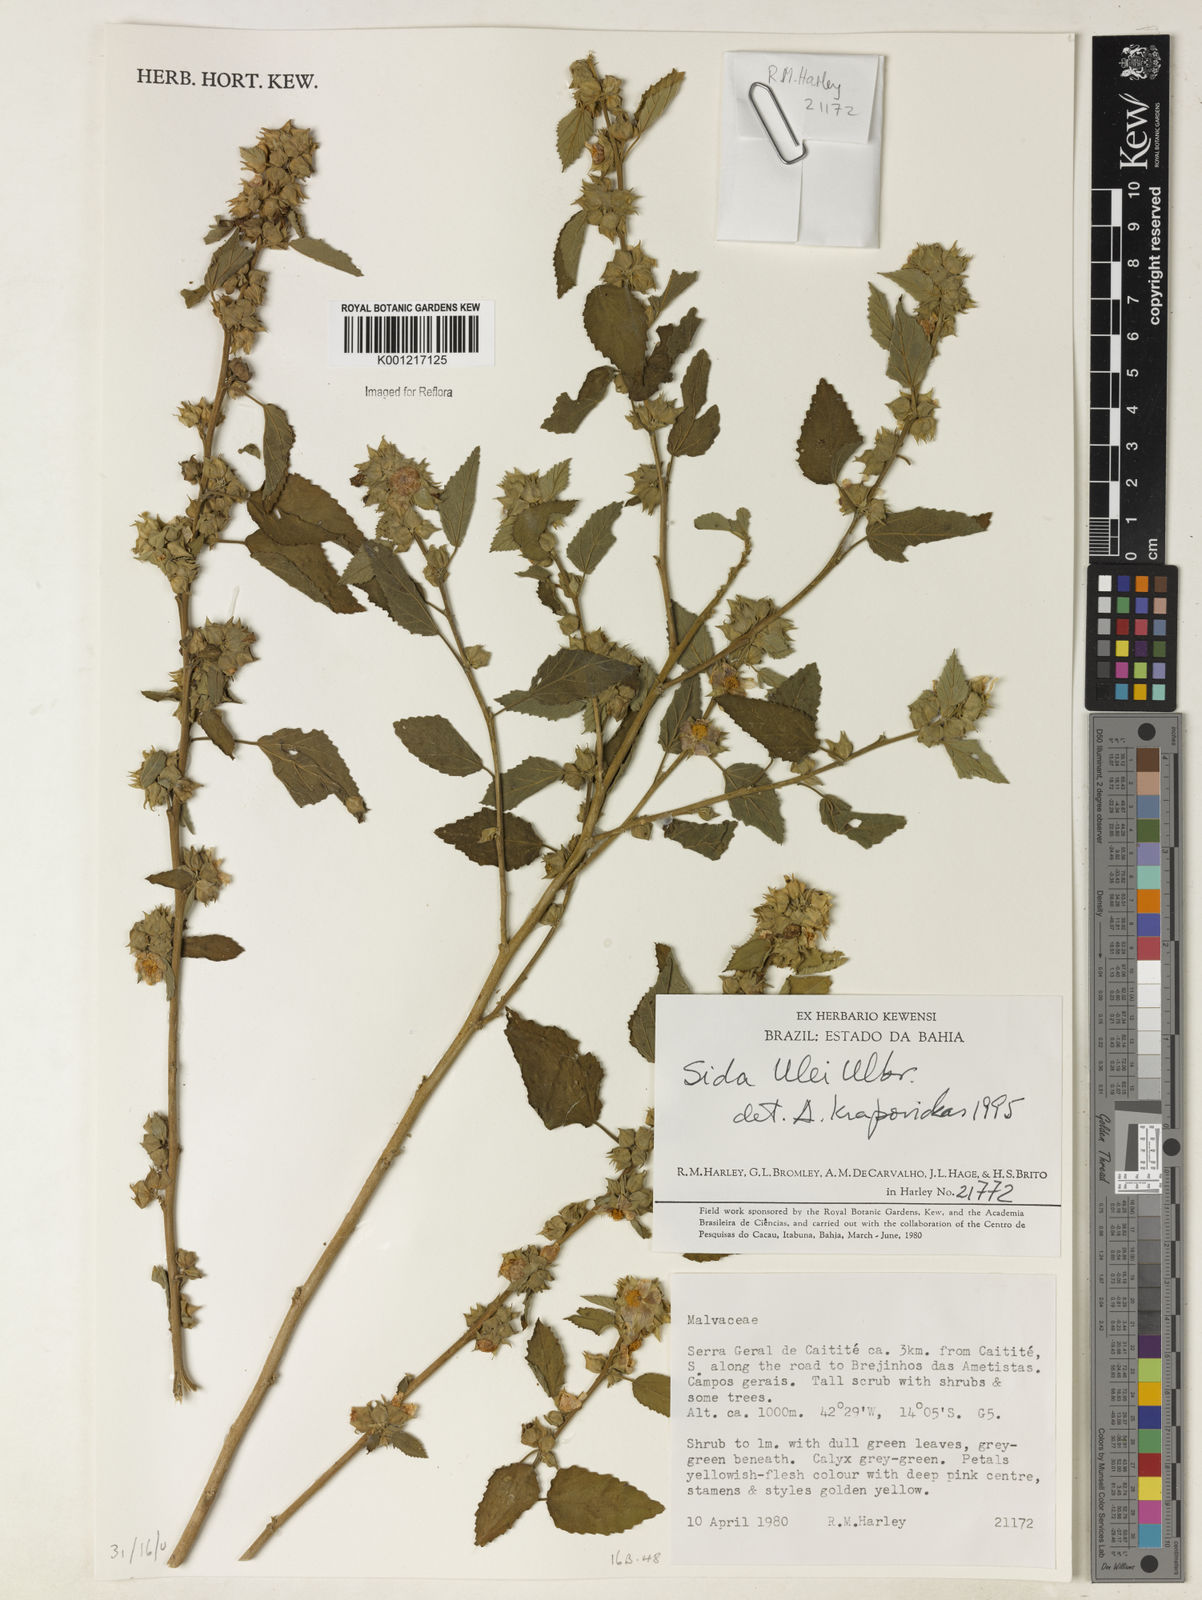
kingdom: Plantae
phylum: Tracheophyta
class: Magnoliopsida
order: Malvales
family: Malvaceae
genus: Sida
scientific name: Sida ulei
